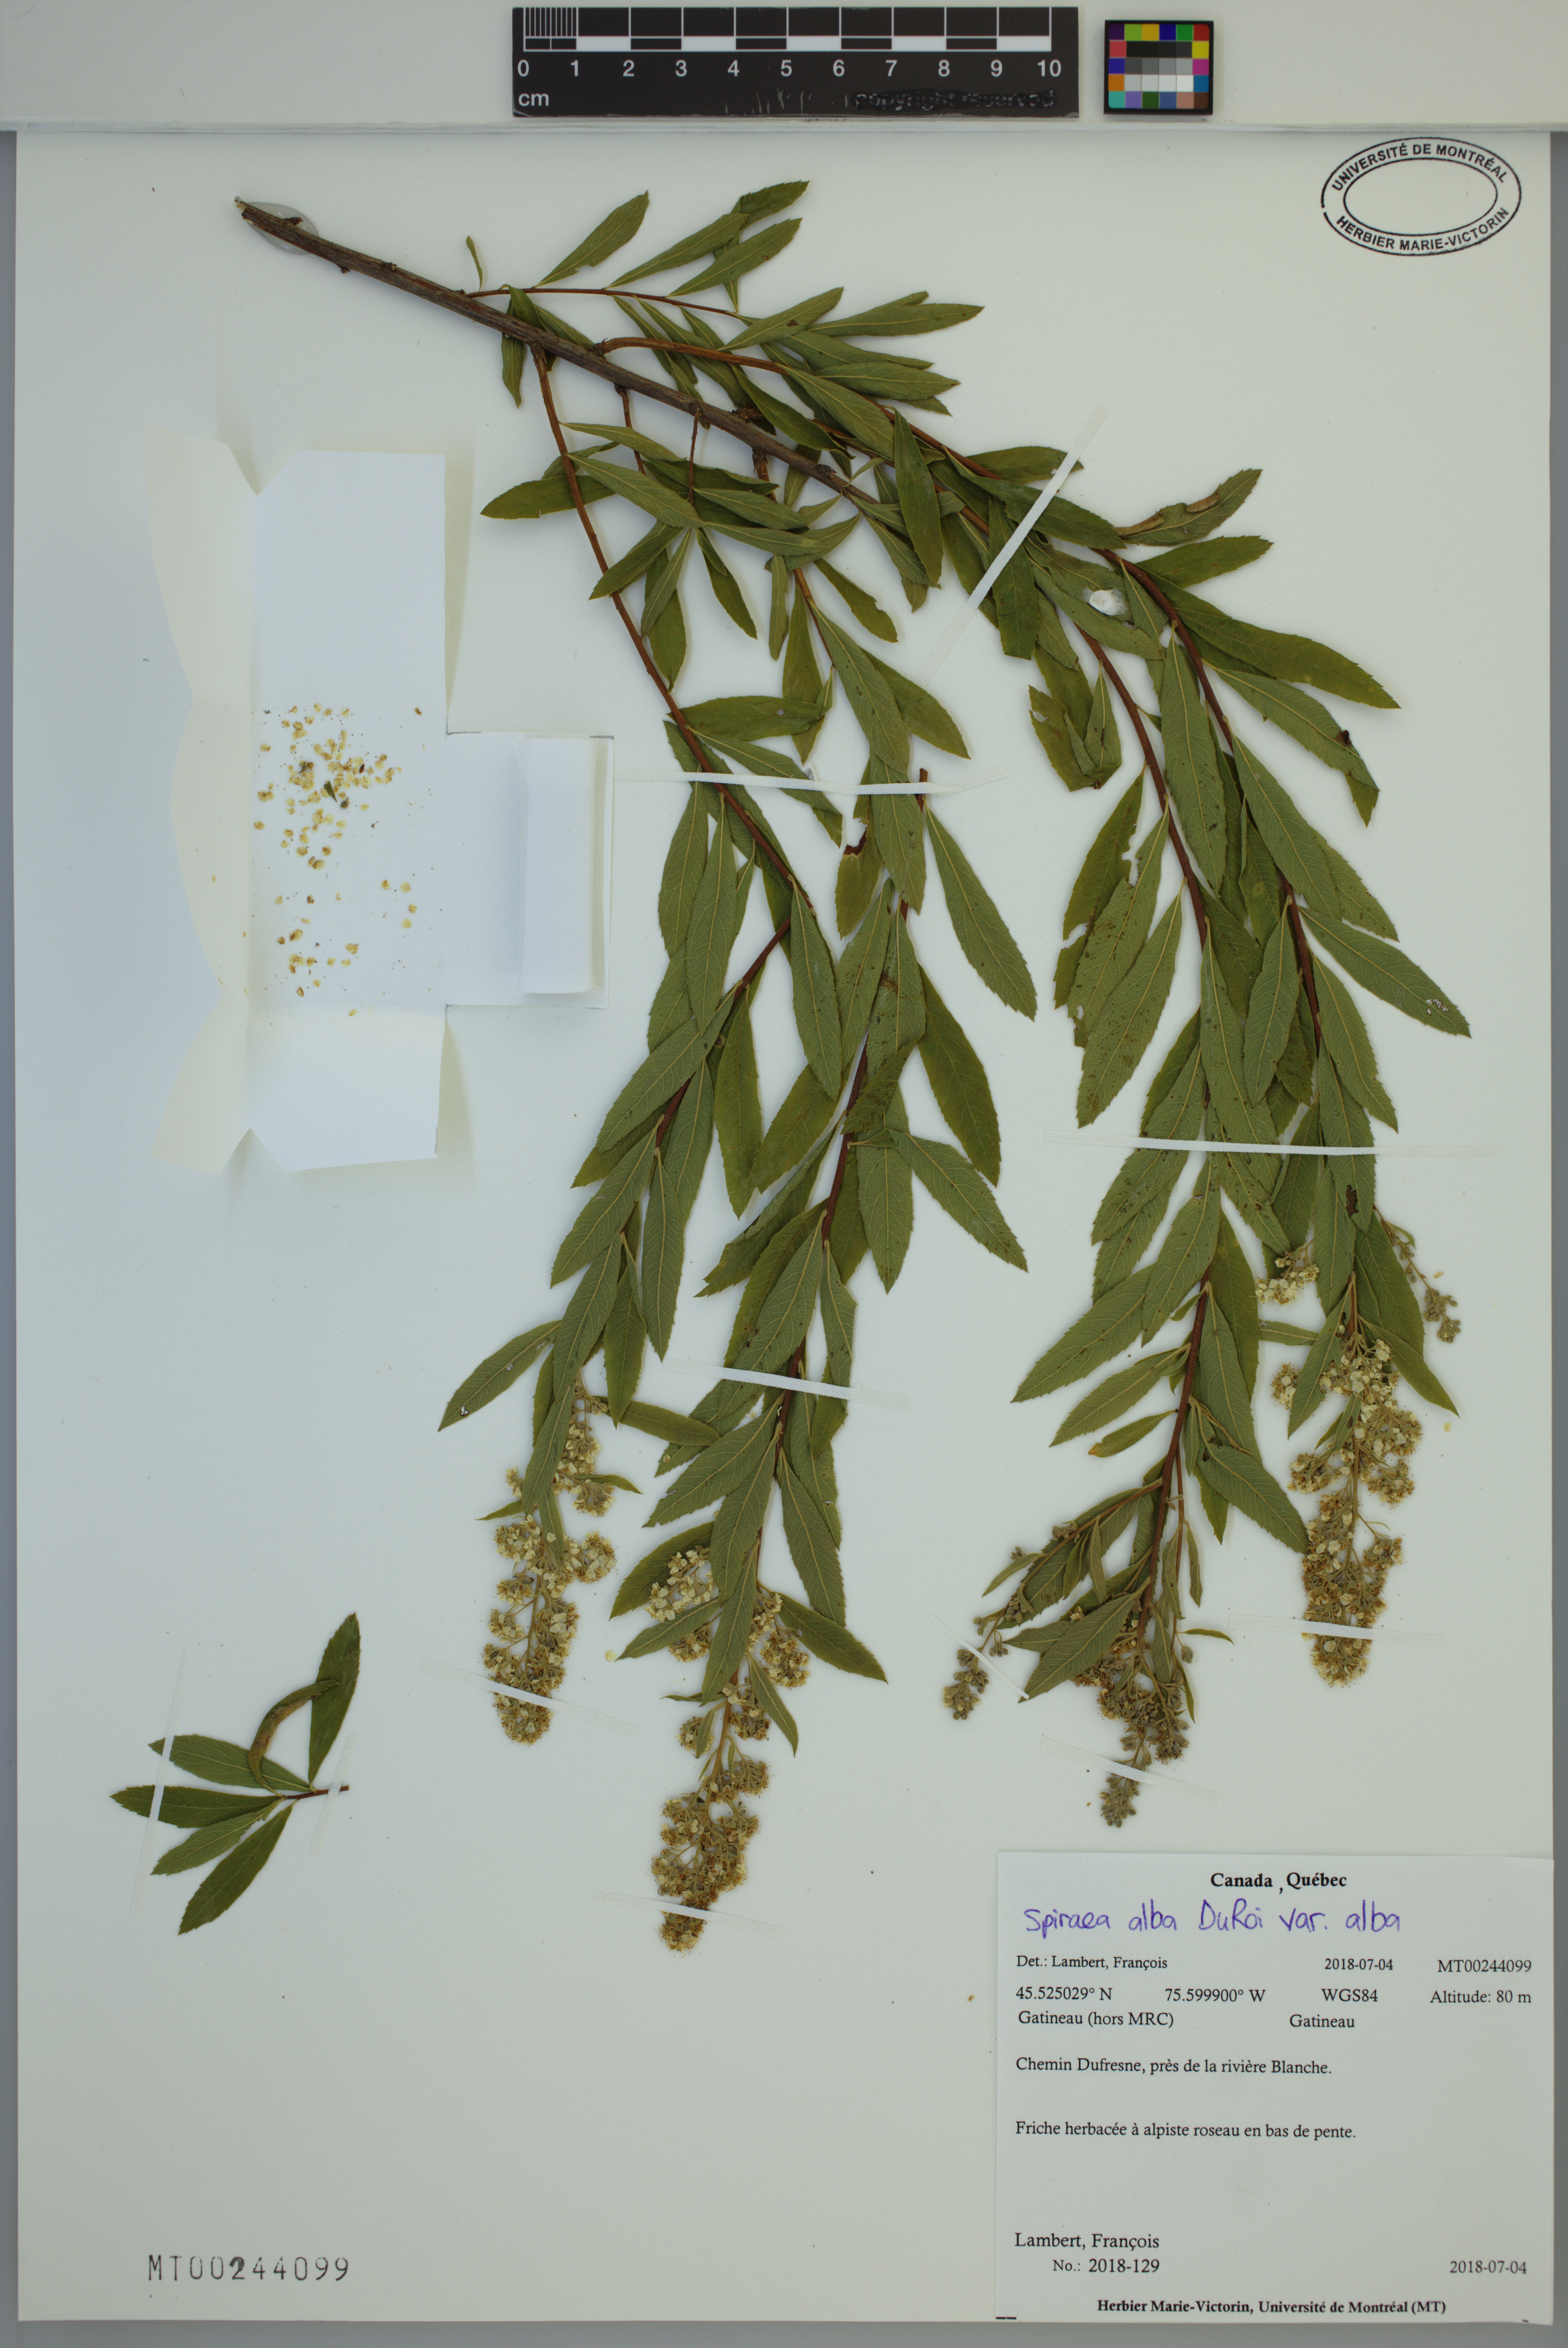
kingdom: Plantae
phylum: Tracheophyta
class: Magnoliopsida
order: Rosales
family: Rosaceae
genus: Spiraea
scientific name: Spiraea alba
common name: Pale bridewort
